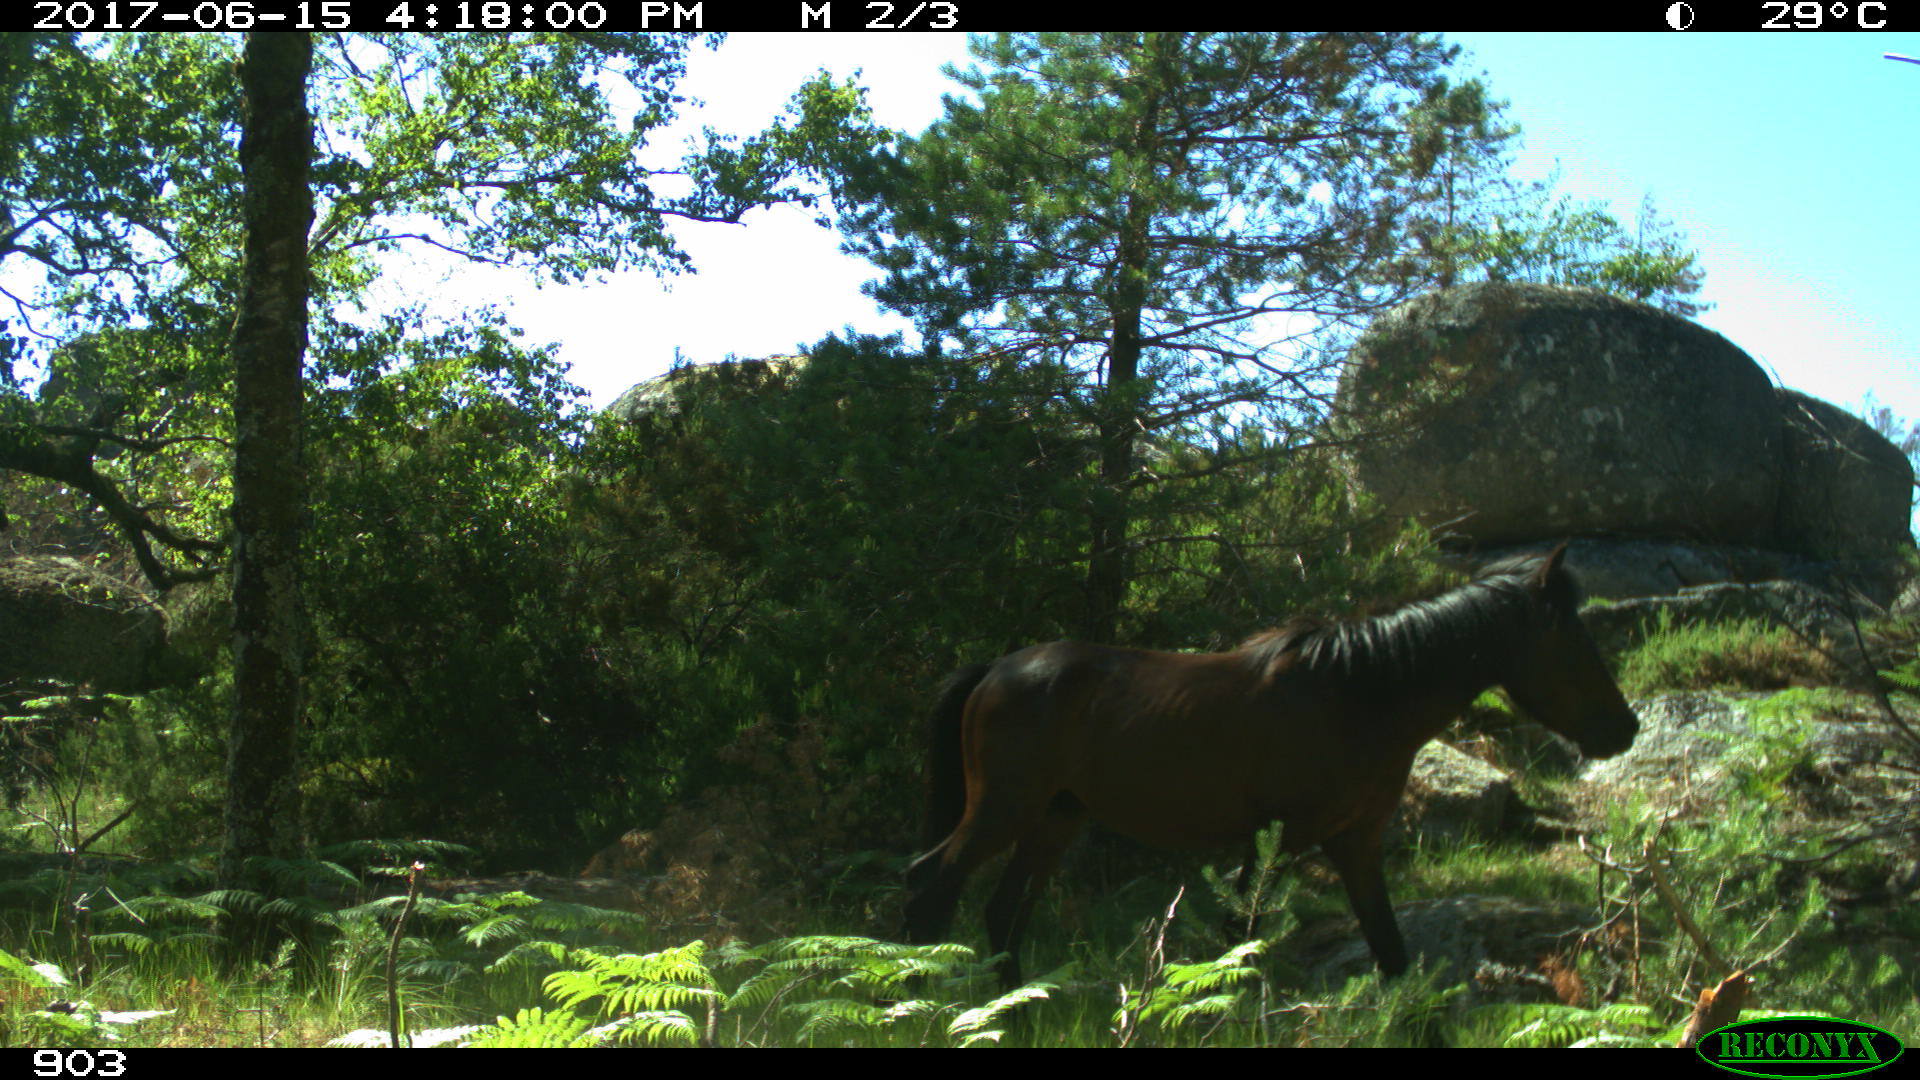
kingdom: Animalia
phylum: Chordata
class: Mammalia
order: Perissodactyla
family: Equidae
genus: Equus
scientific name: Equus caballus
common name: Horse
